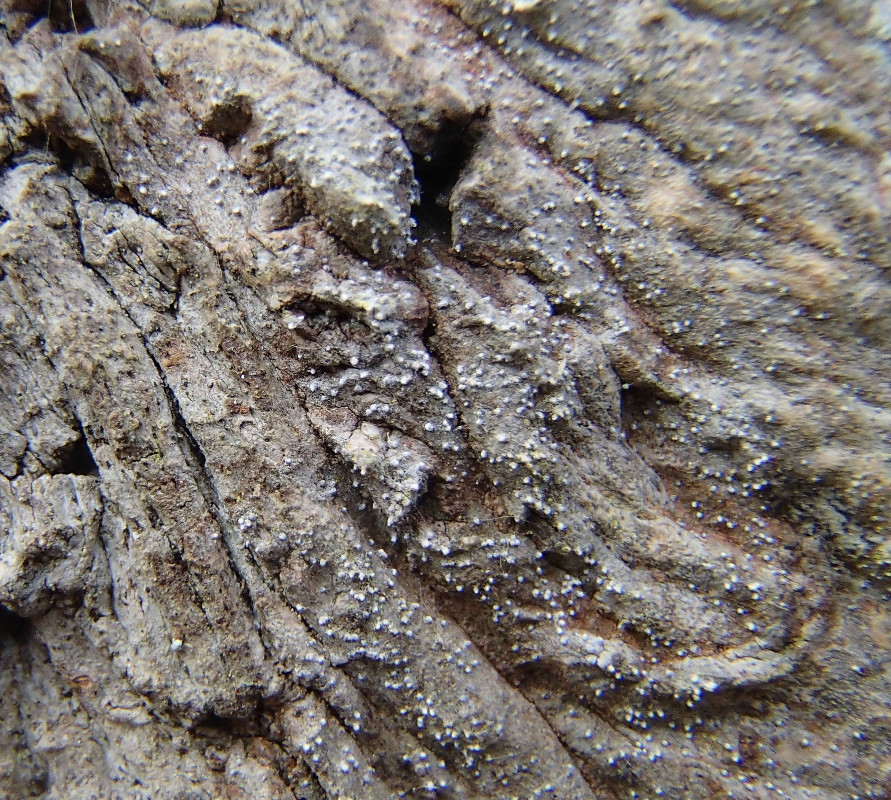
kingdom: Fungi
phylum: Ascomycota
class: Arthoniomycetes
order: Arthoniales
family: Opegraphaceae
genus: Opegrapha
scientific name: Opegrapha vermicellifera
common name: nåleprikket bogstavlav
